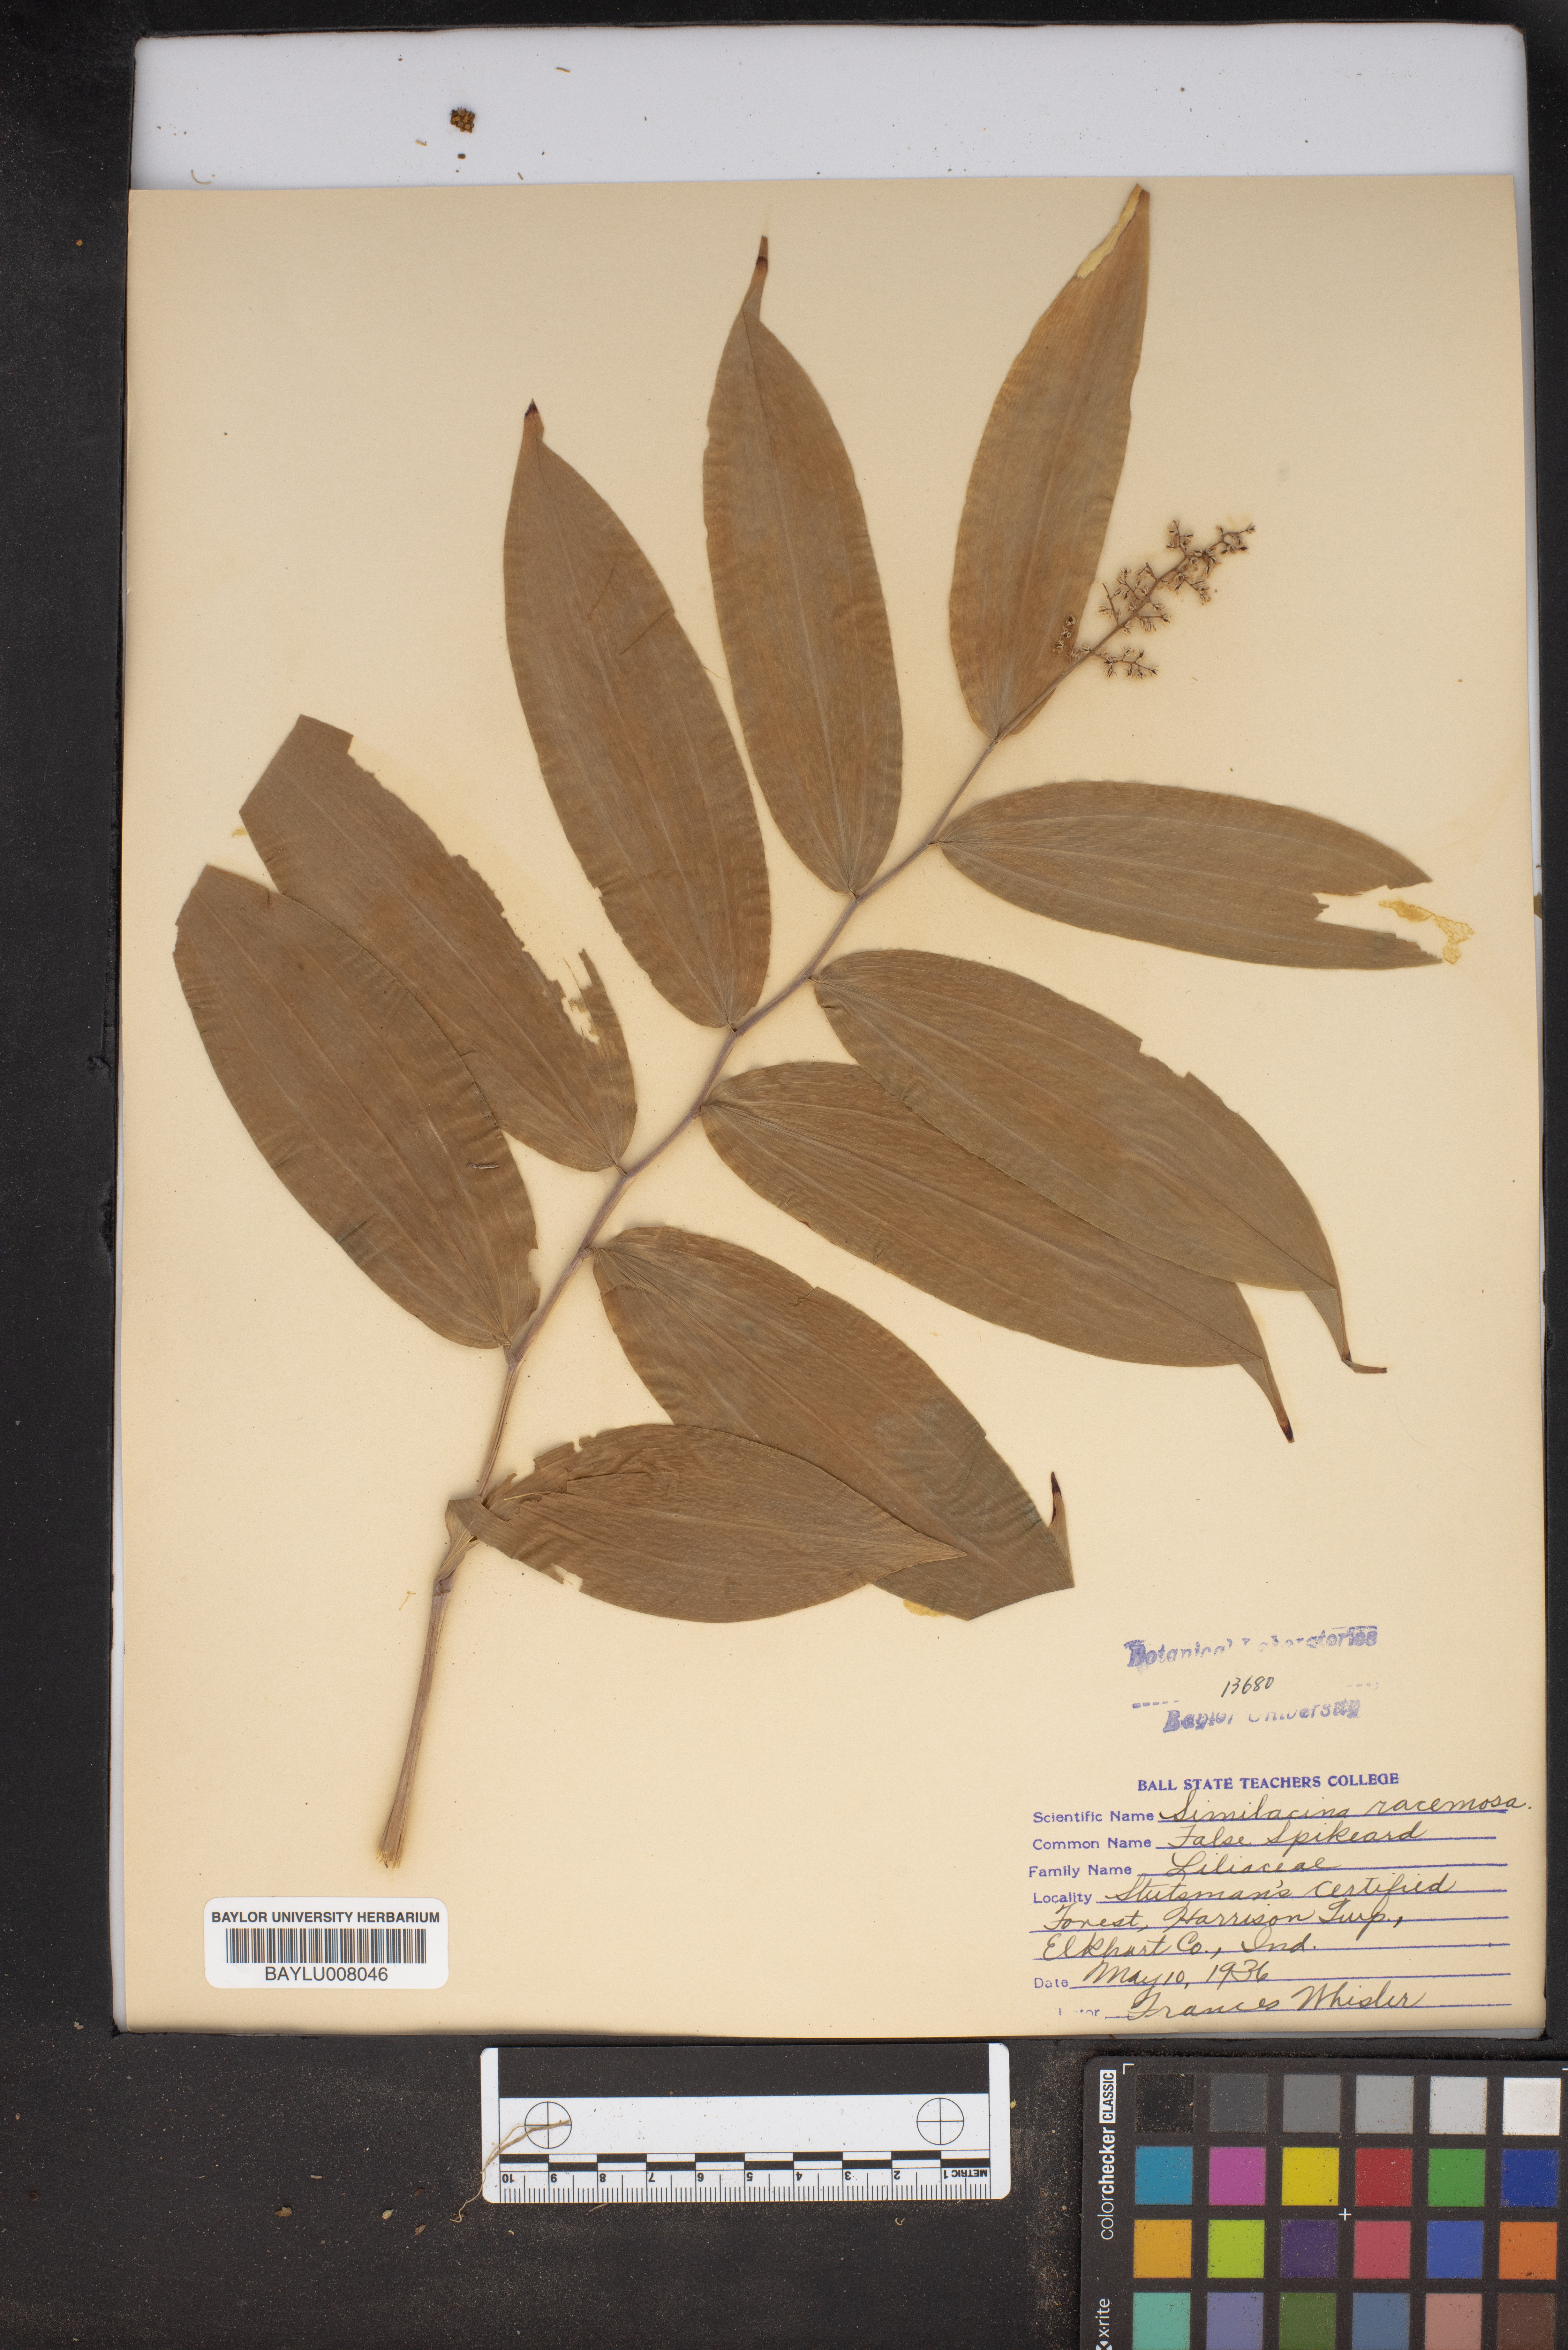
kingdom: Plantae
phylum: Tracheophyta
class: Liliopsida
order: Asparagales
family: Asparagaceae
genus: Maianthemum
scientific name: Maianthemum racemosum
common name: False spikenard
